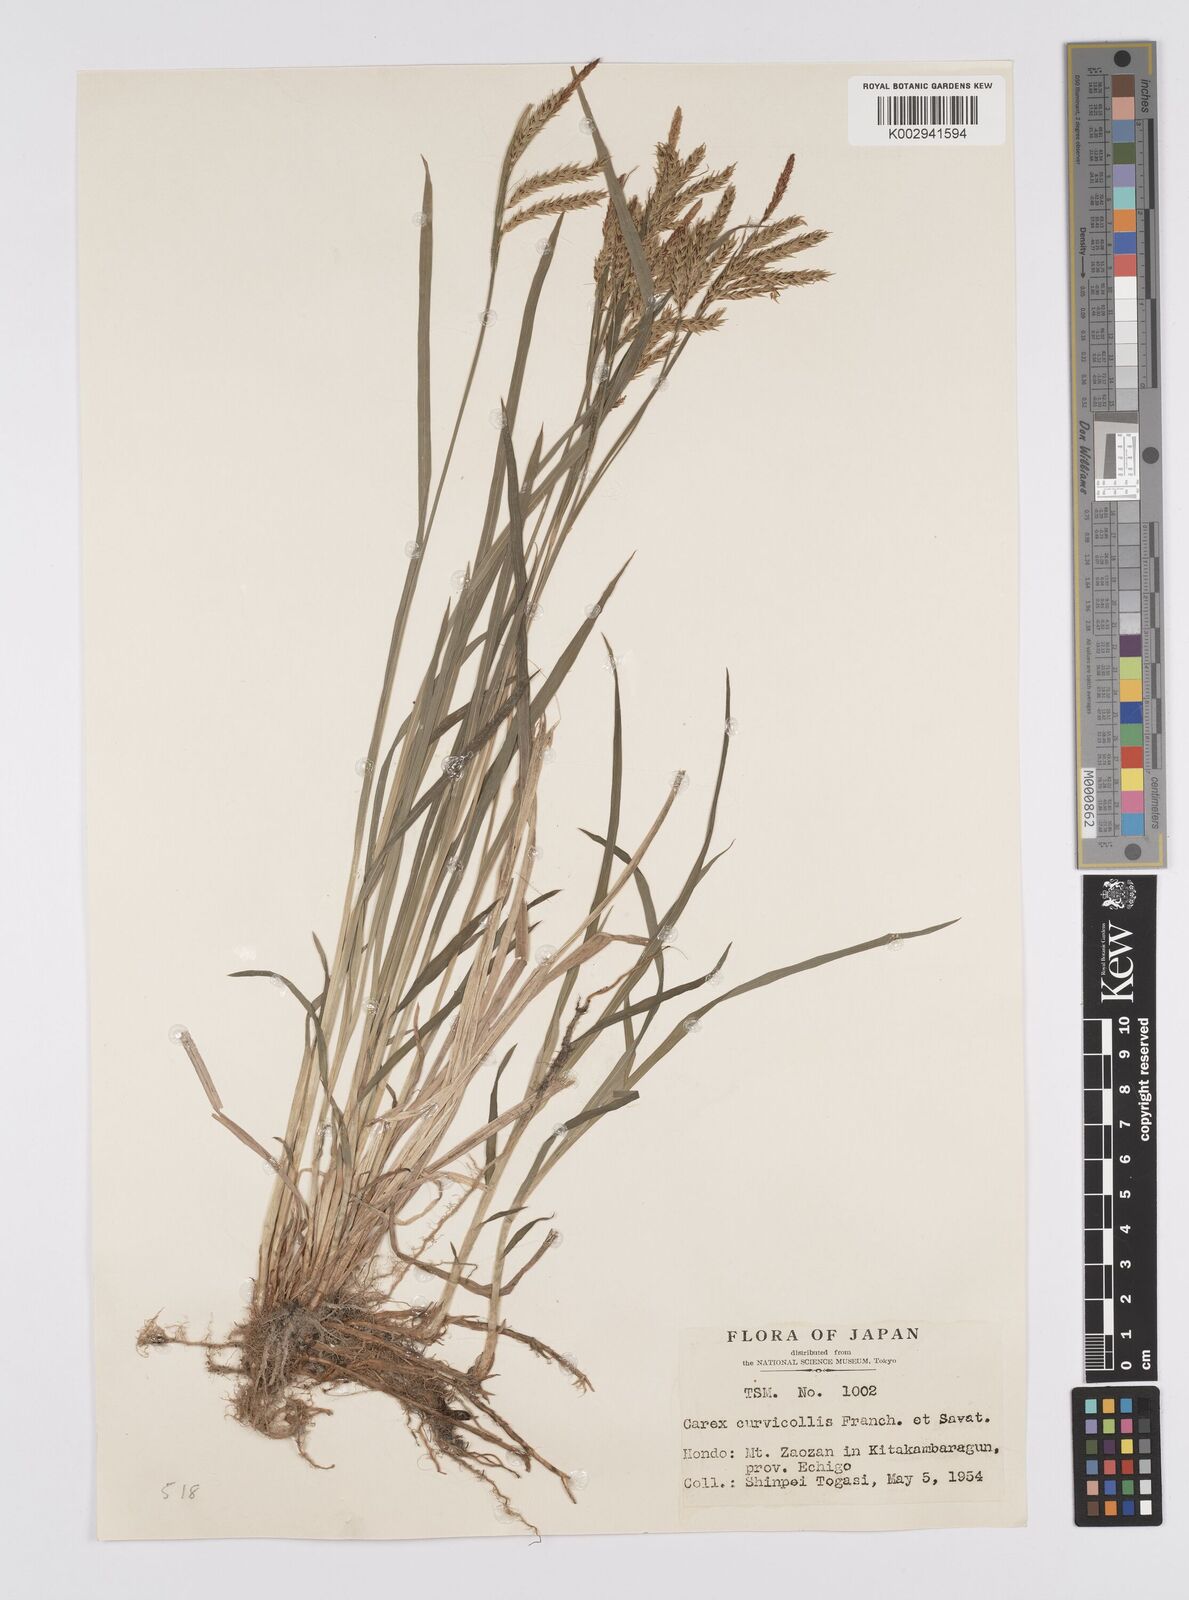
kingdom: Plantae
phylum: Tracheophyta
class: Liliopsida
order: Poales
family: Cyperaceae
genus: Carex
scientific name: Carex curvicollis
